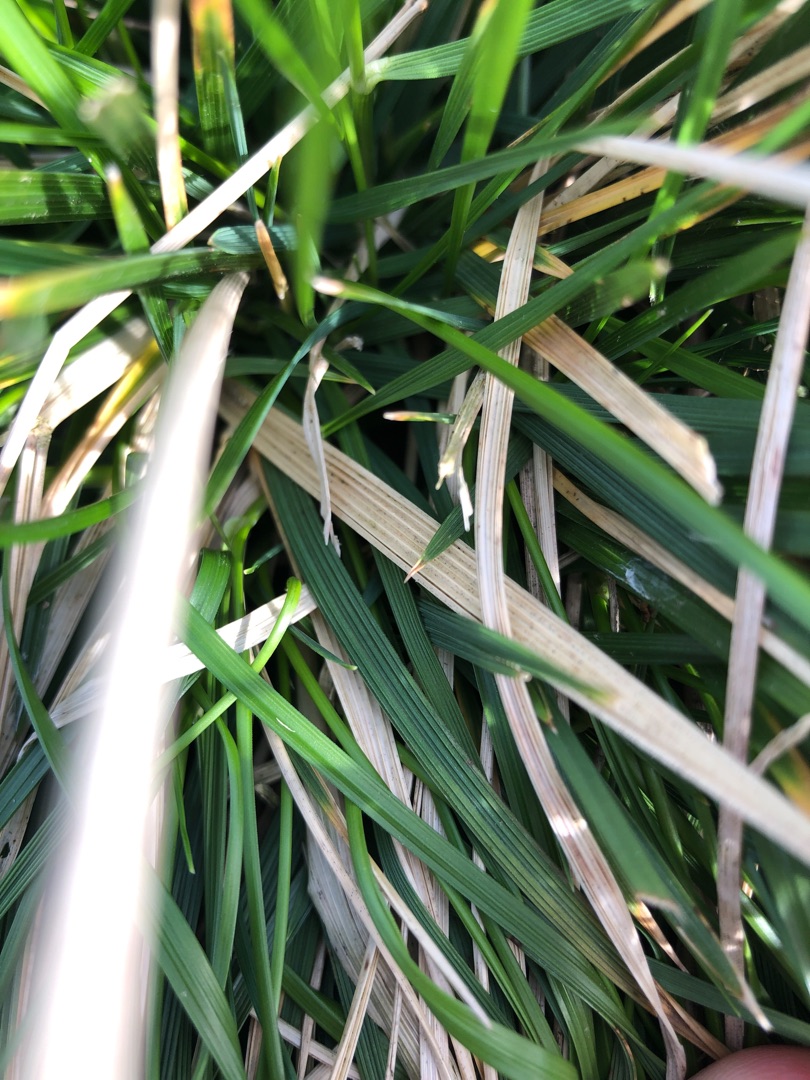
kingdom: Plantae
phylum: Tracheophyta
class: Liliopsida
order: Poales
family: Poaceae
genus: Deschampsia
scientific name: Deschampsia cespitosa
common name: Mose-bunke
